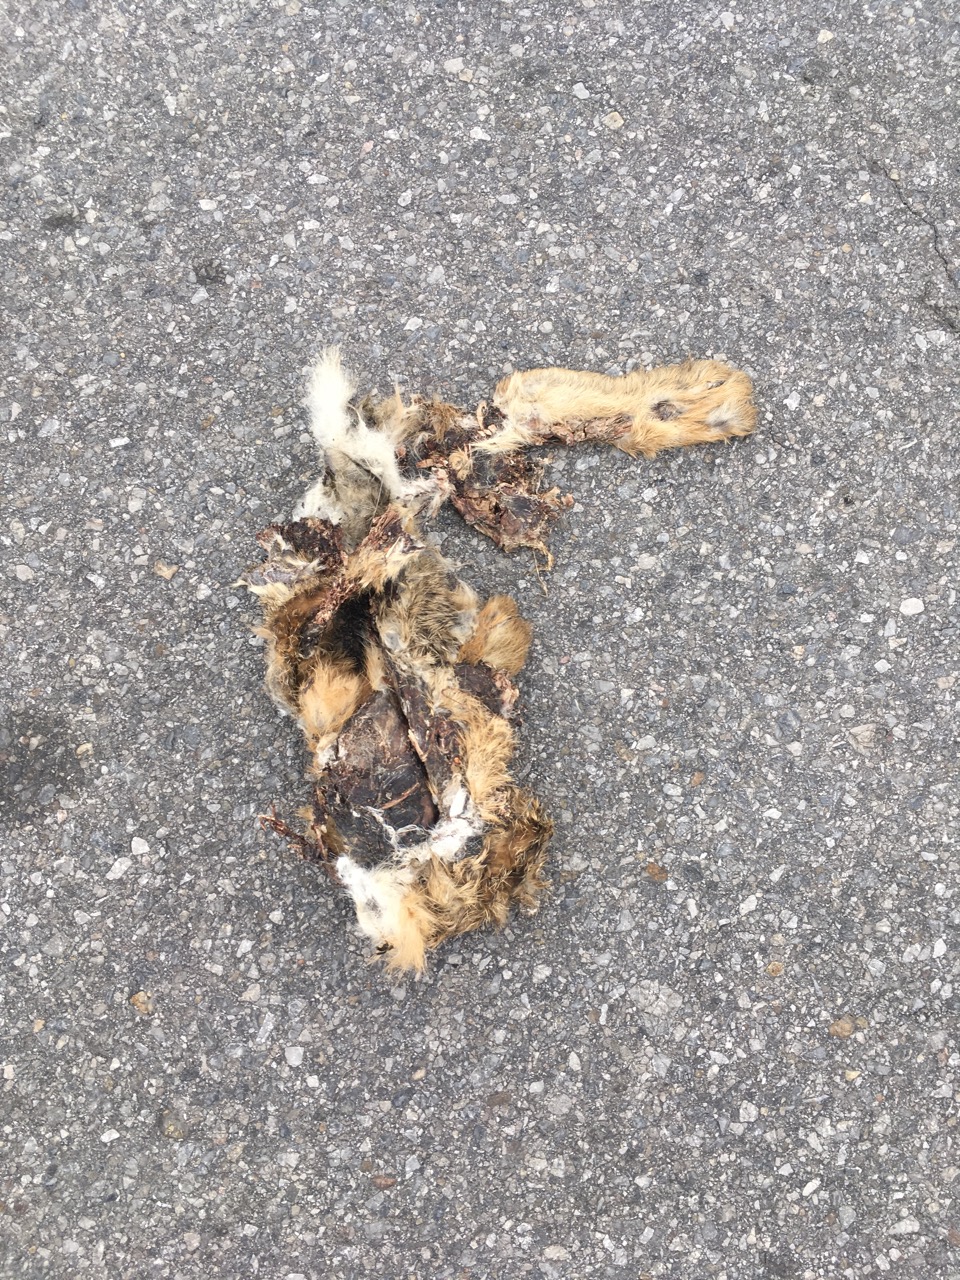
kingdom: Animalia
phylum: Chordata
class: Mammalia
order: Lagomorpha
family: Leporidae
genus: Lepus
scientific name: Lepus europaeus
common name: European hare
